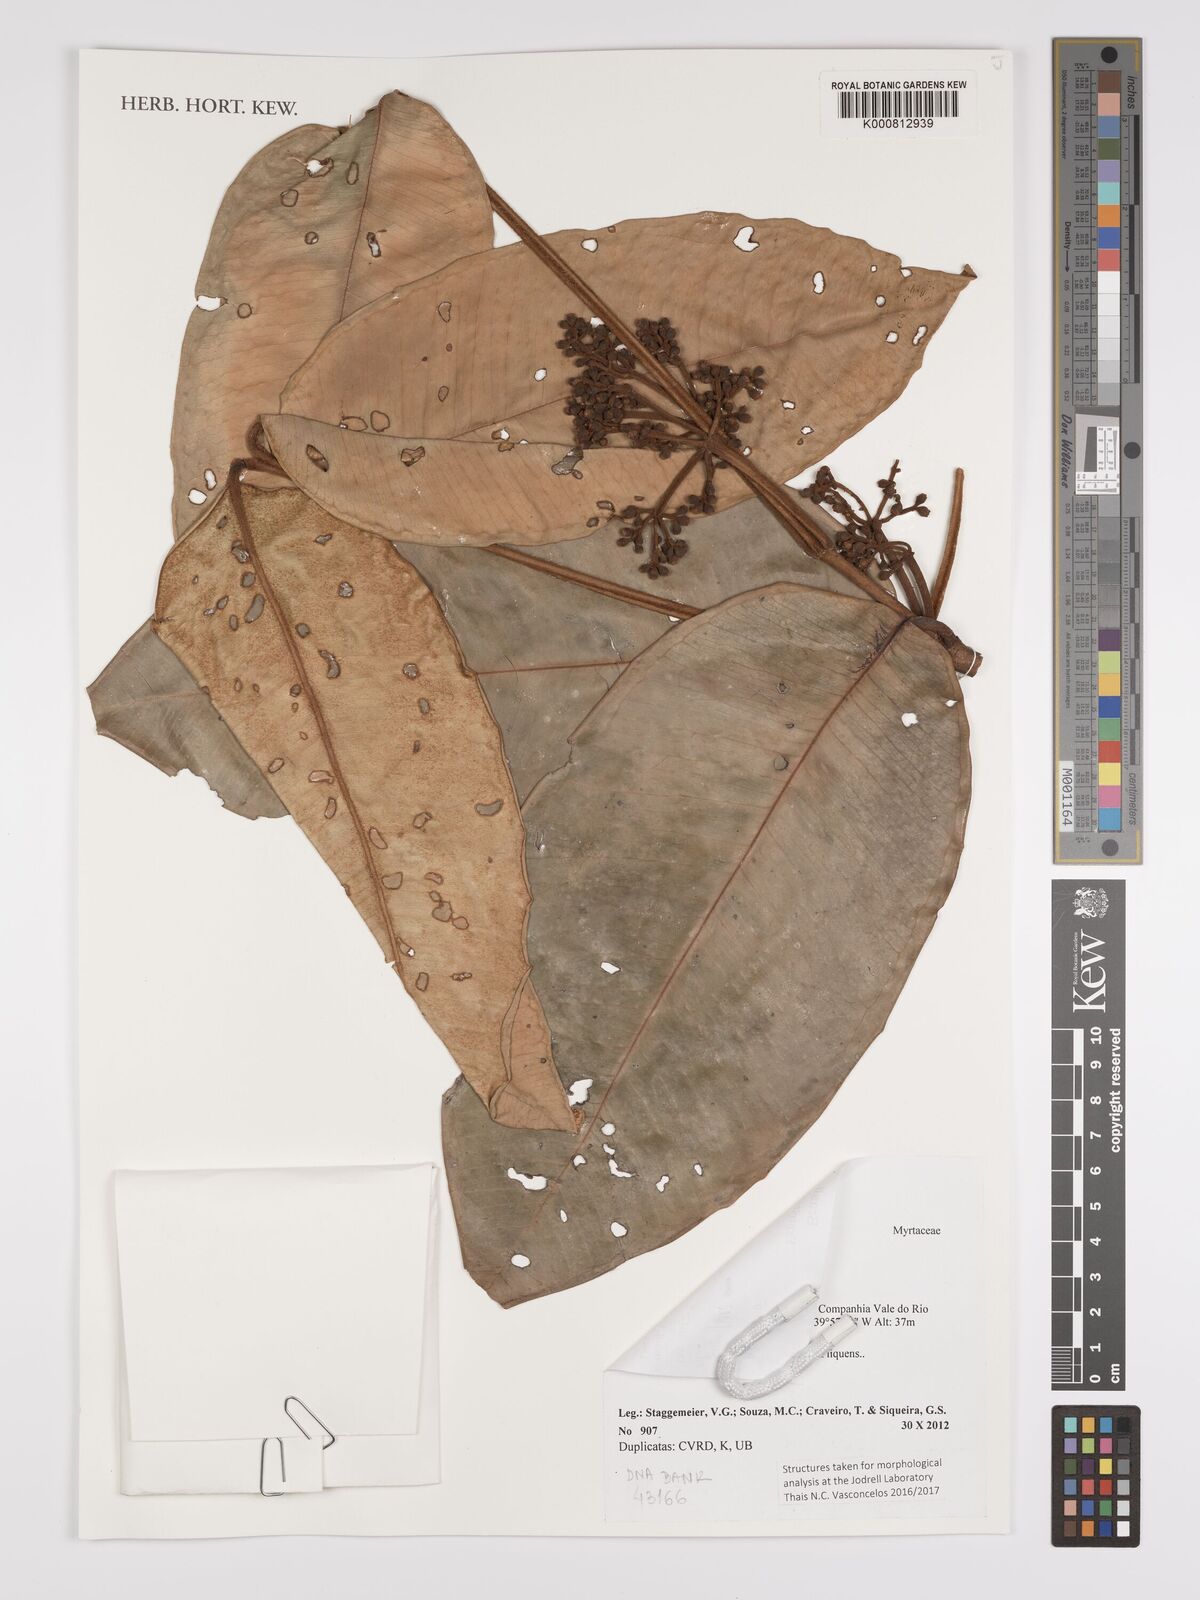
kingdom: Plantae
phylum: Tracheophyta
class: Magnoliopsida
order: Myrtales
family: Myrtaceae
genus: Myrcia
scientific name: Myrcia follii
